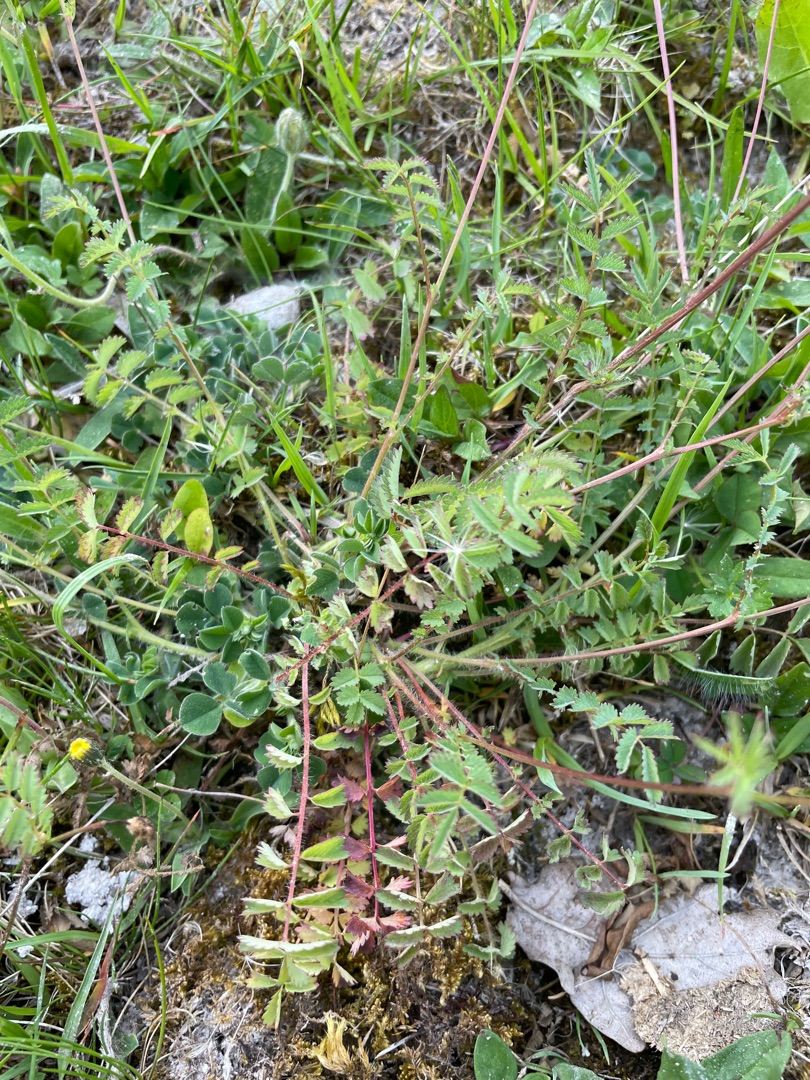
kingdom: Plantae
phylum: Tracheophyta
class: Magnoliopsida
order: Rosales
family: Rosaceae
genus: Poterium
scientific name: Poterium sanguisorba
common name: Bibernelle
